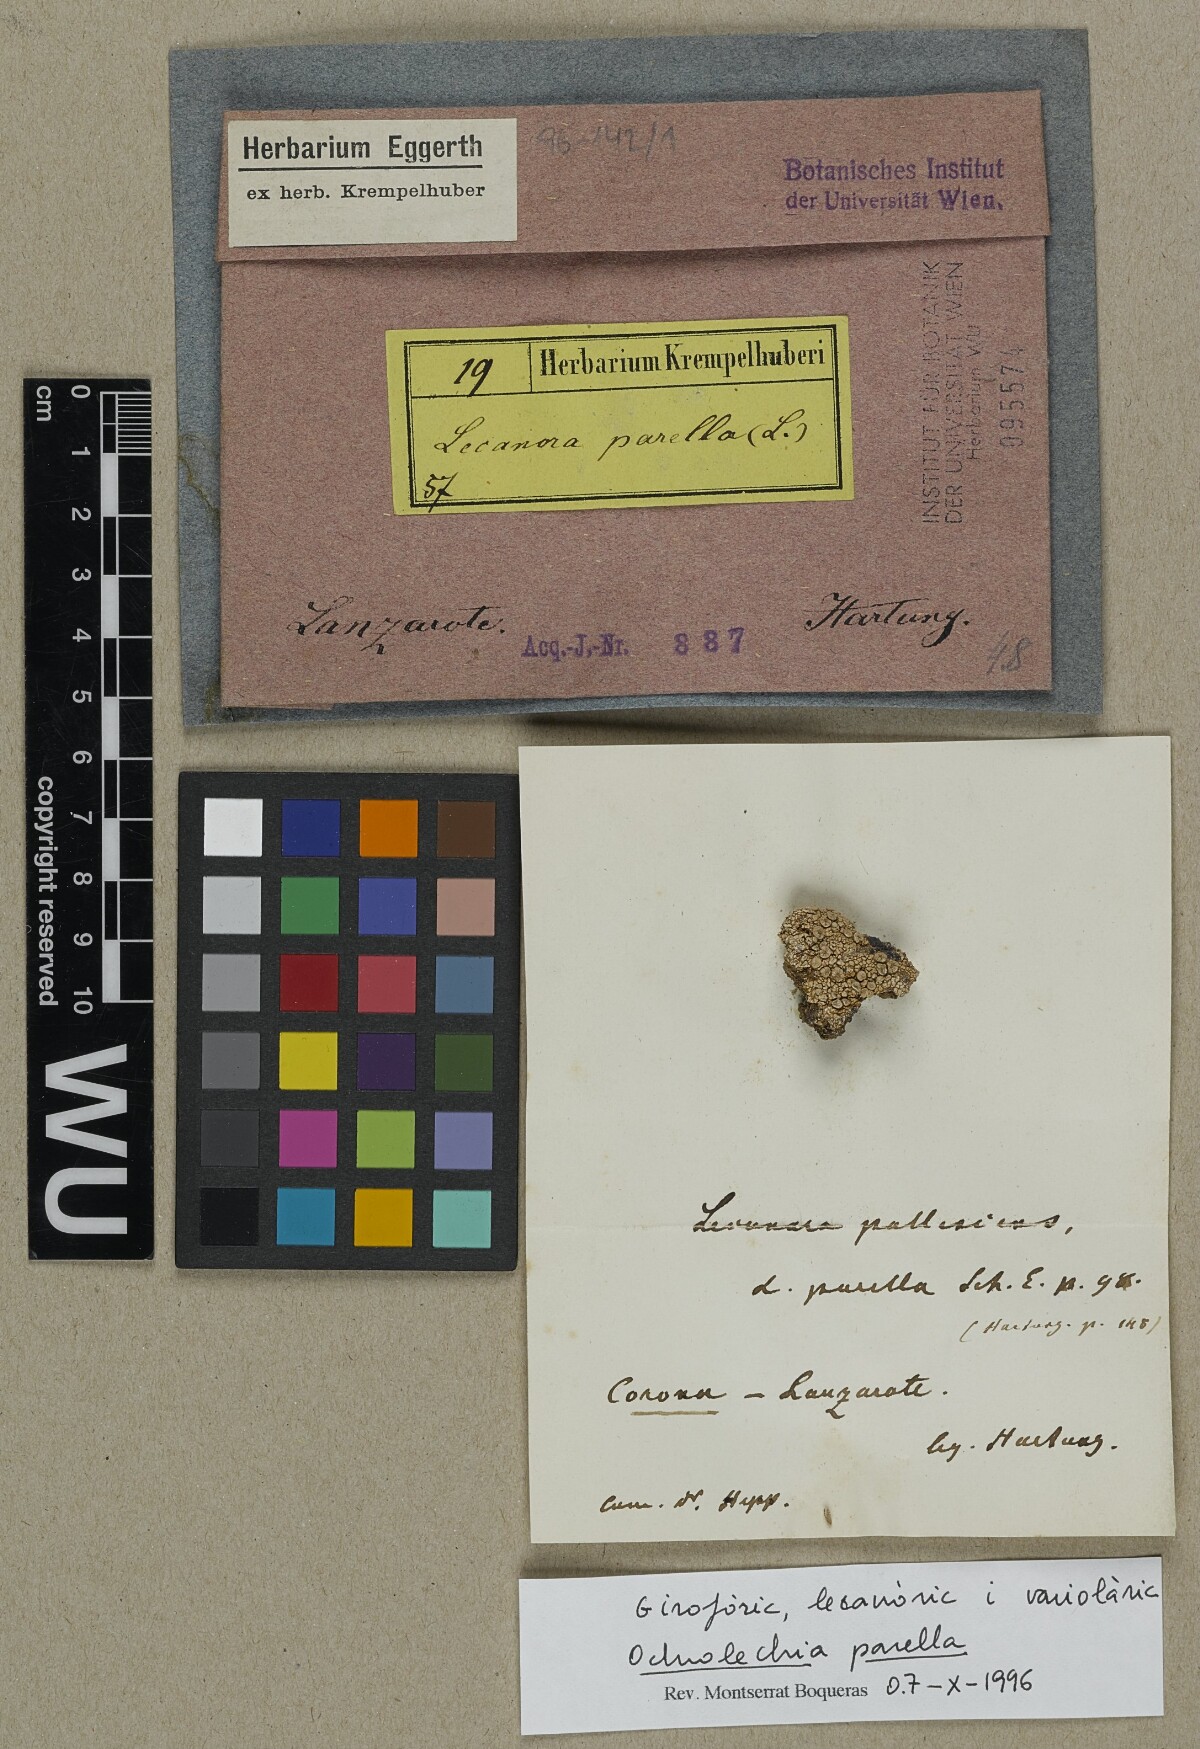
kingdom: Fungi
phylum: Ascomycota
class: Lecanoromycetes
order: Pertusariales
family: Ochrolechiaceae
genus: Ochrolechia
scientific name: Ochrolechia parella
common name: Crab's eye lichen
